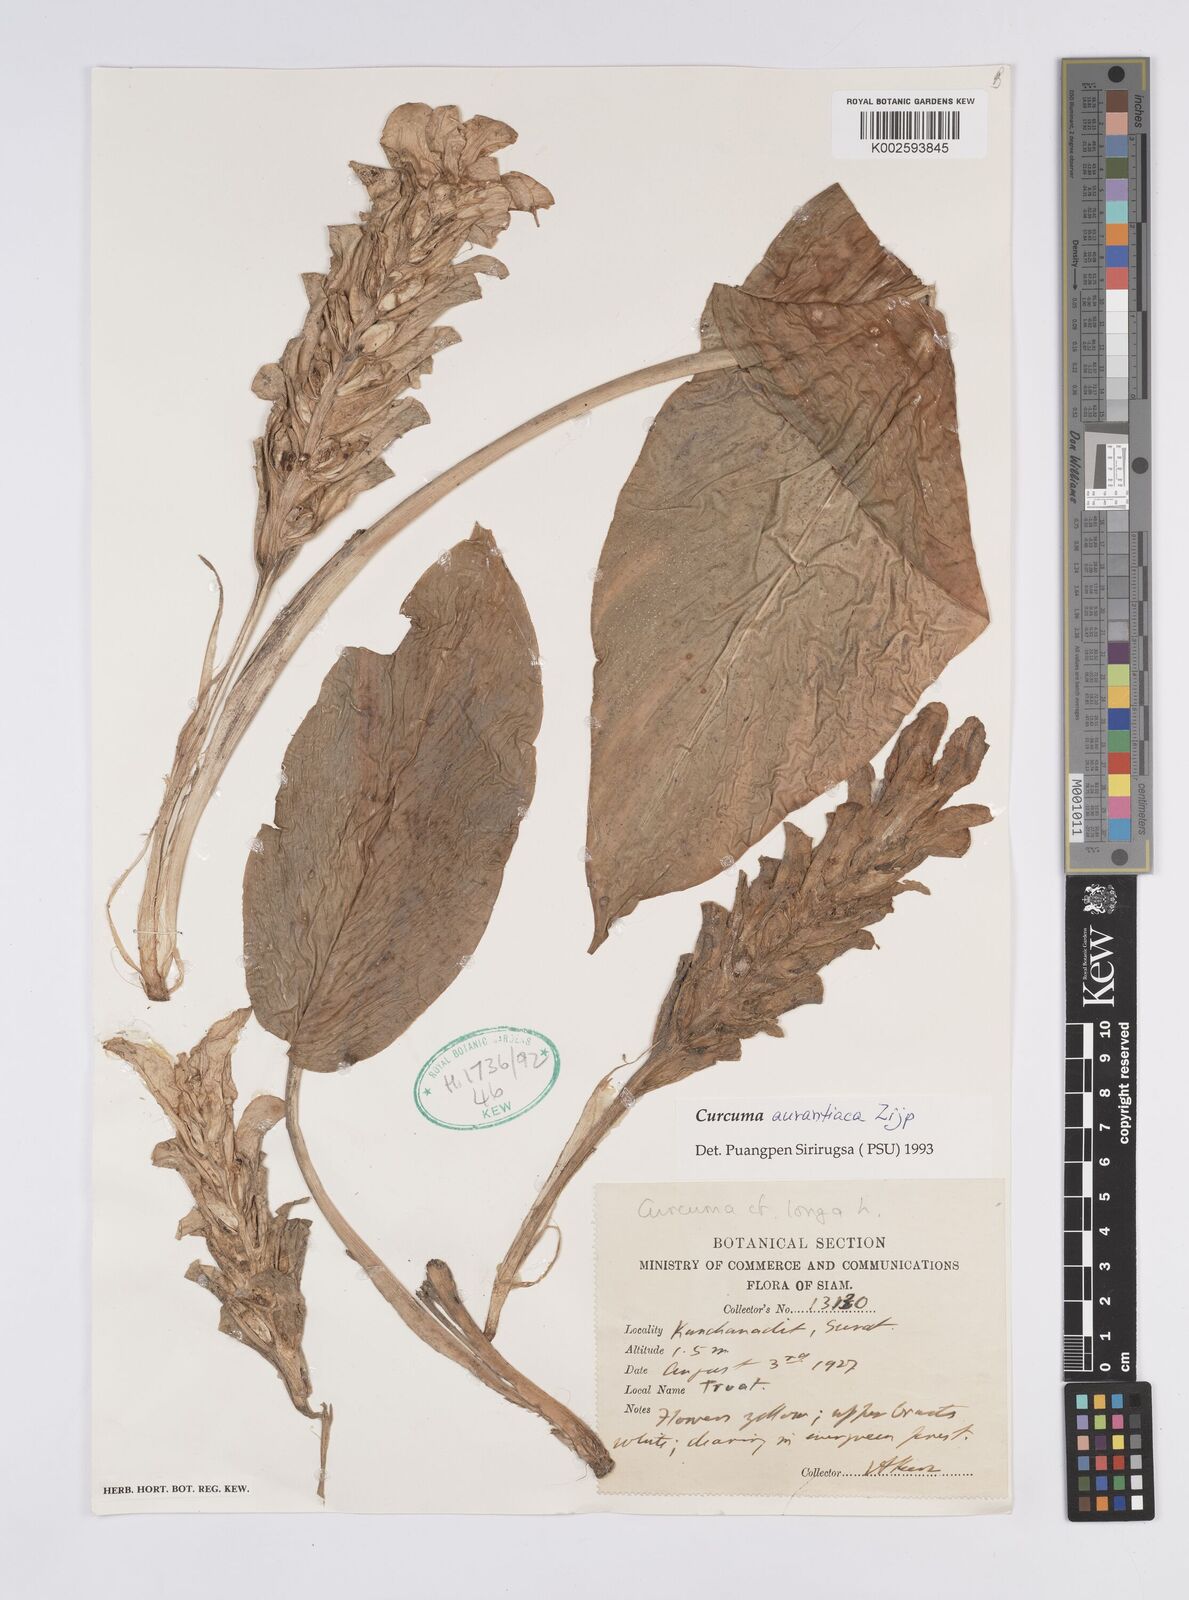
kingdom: Plantae
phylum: Tracheophyta
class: Liliopsida
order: Zingiberales
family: Zingiberaceae
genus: Curcuma
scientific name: Curcuma aurantiaca
